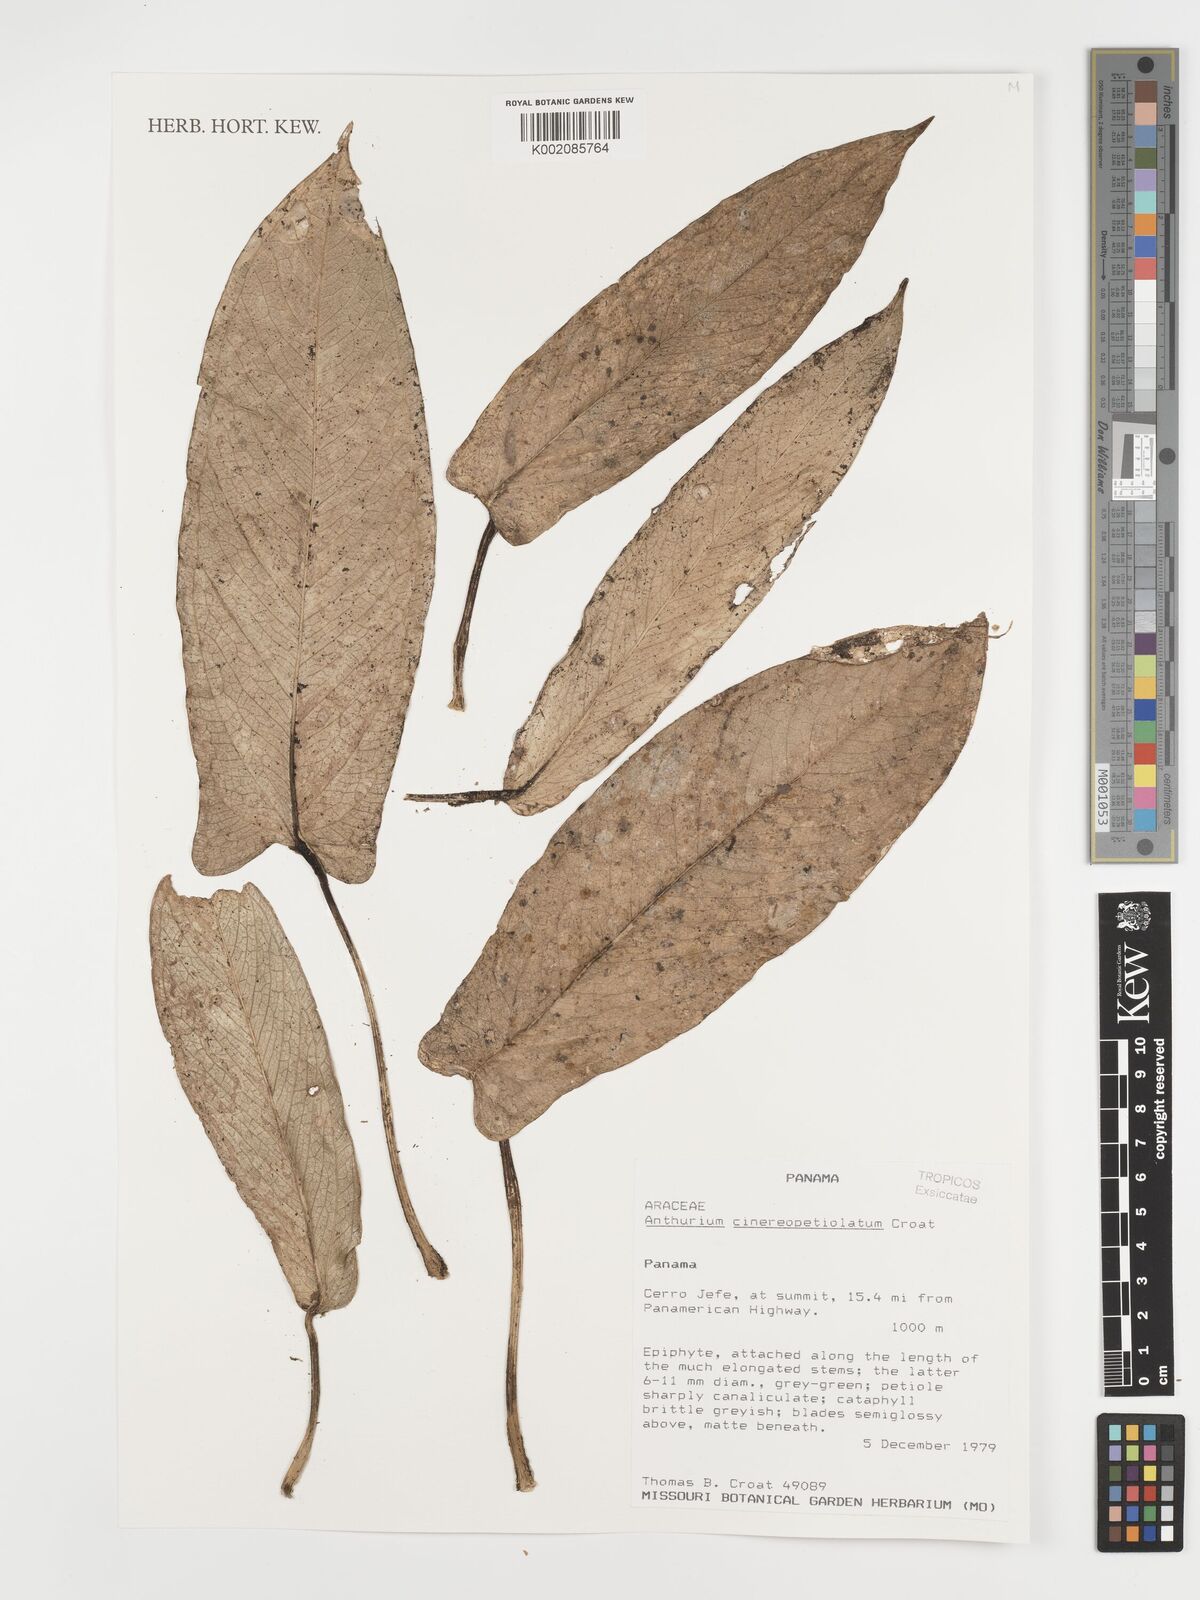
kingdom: Plantae
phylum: Tracheophyta
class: Liliopsida
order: Alismatales
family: Araceae
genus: Anthurium
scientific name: Anthurium cinereopetiolatum
